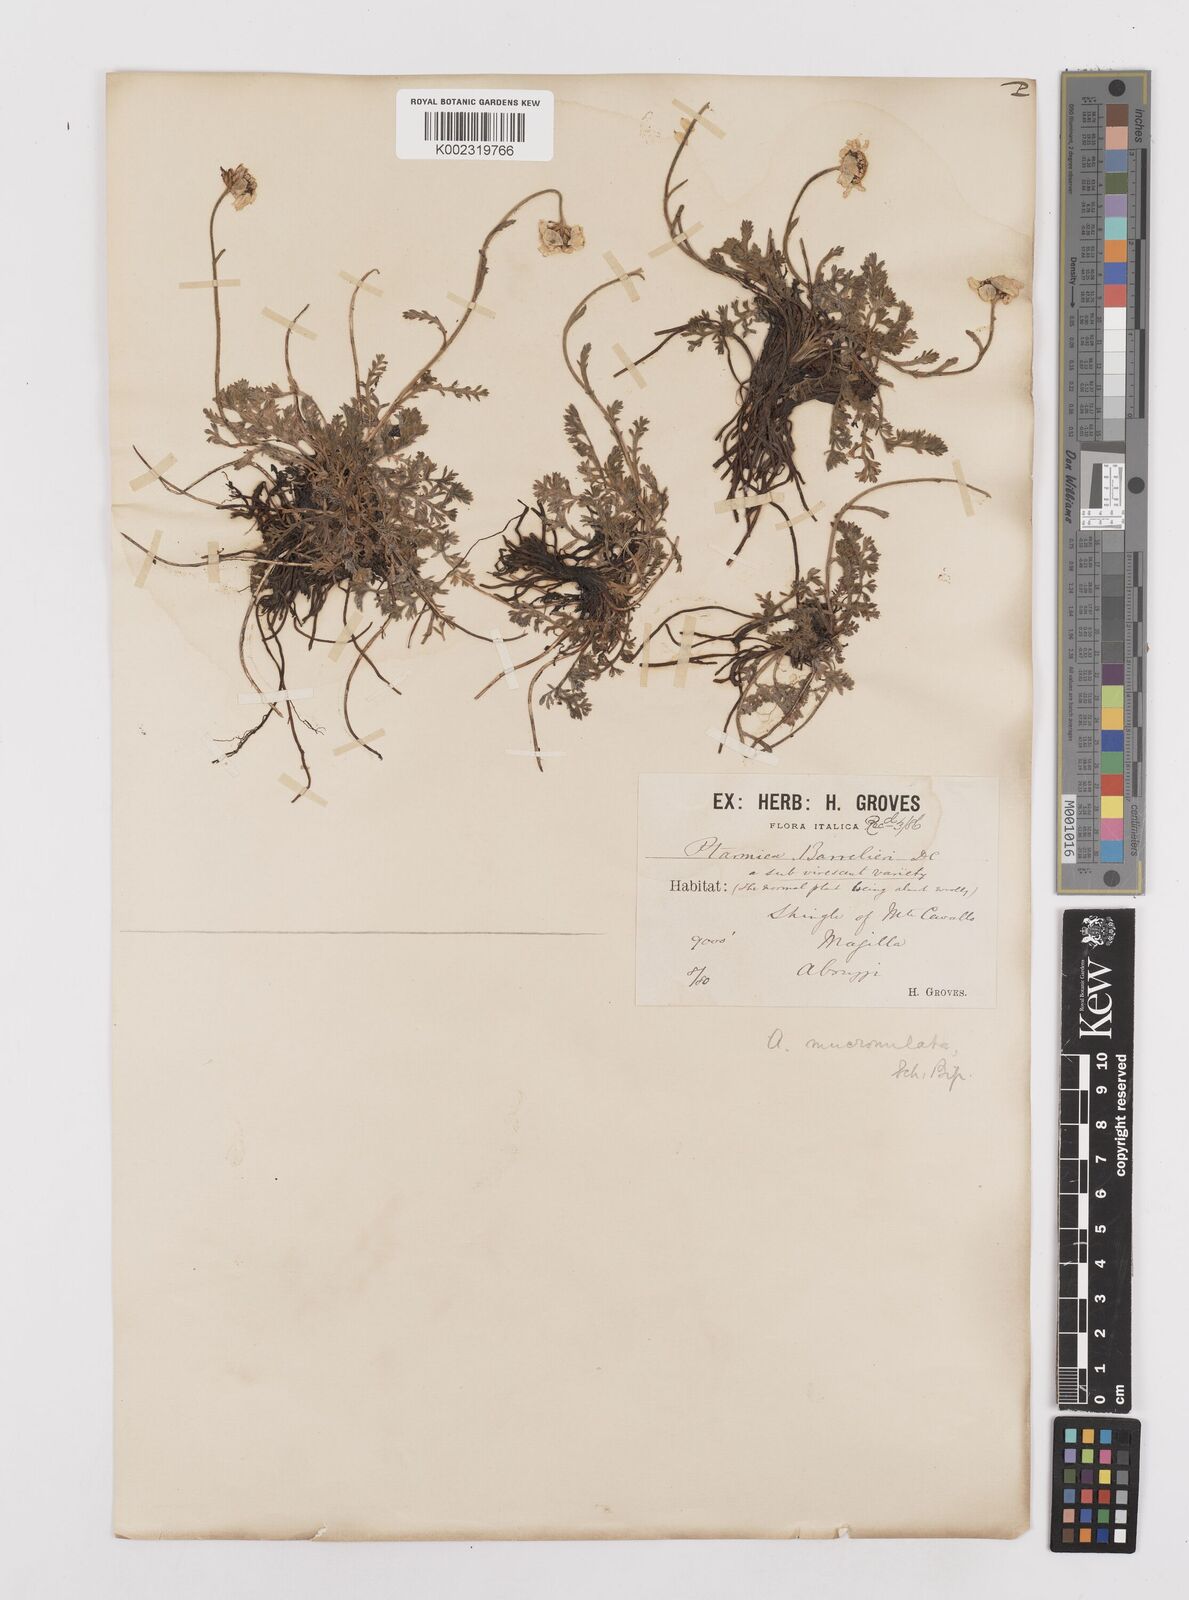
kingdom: Plantae
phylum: Tracheophyta
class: Magnoliopsida
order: Asterales
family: Asteraceae
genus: Achillea
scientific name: Achillea barrelieri
